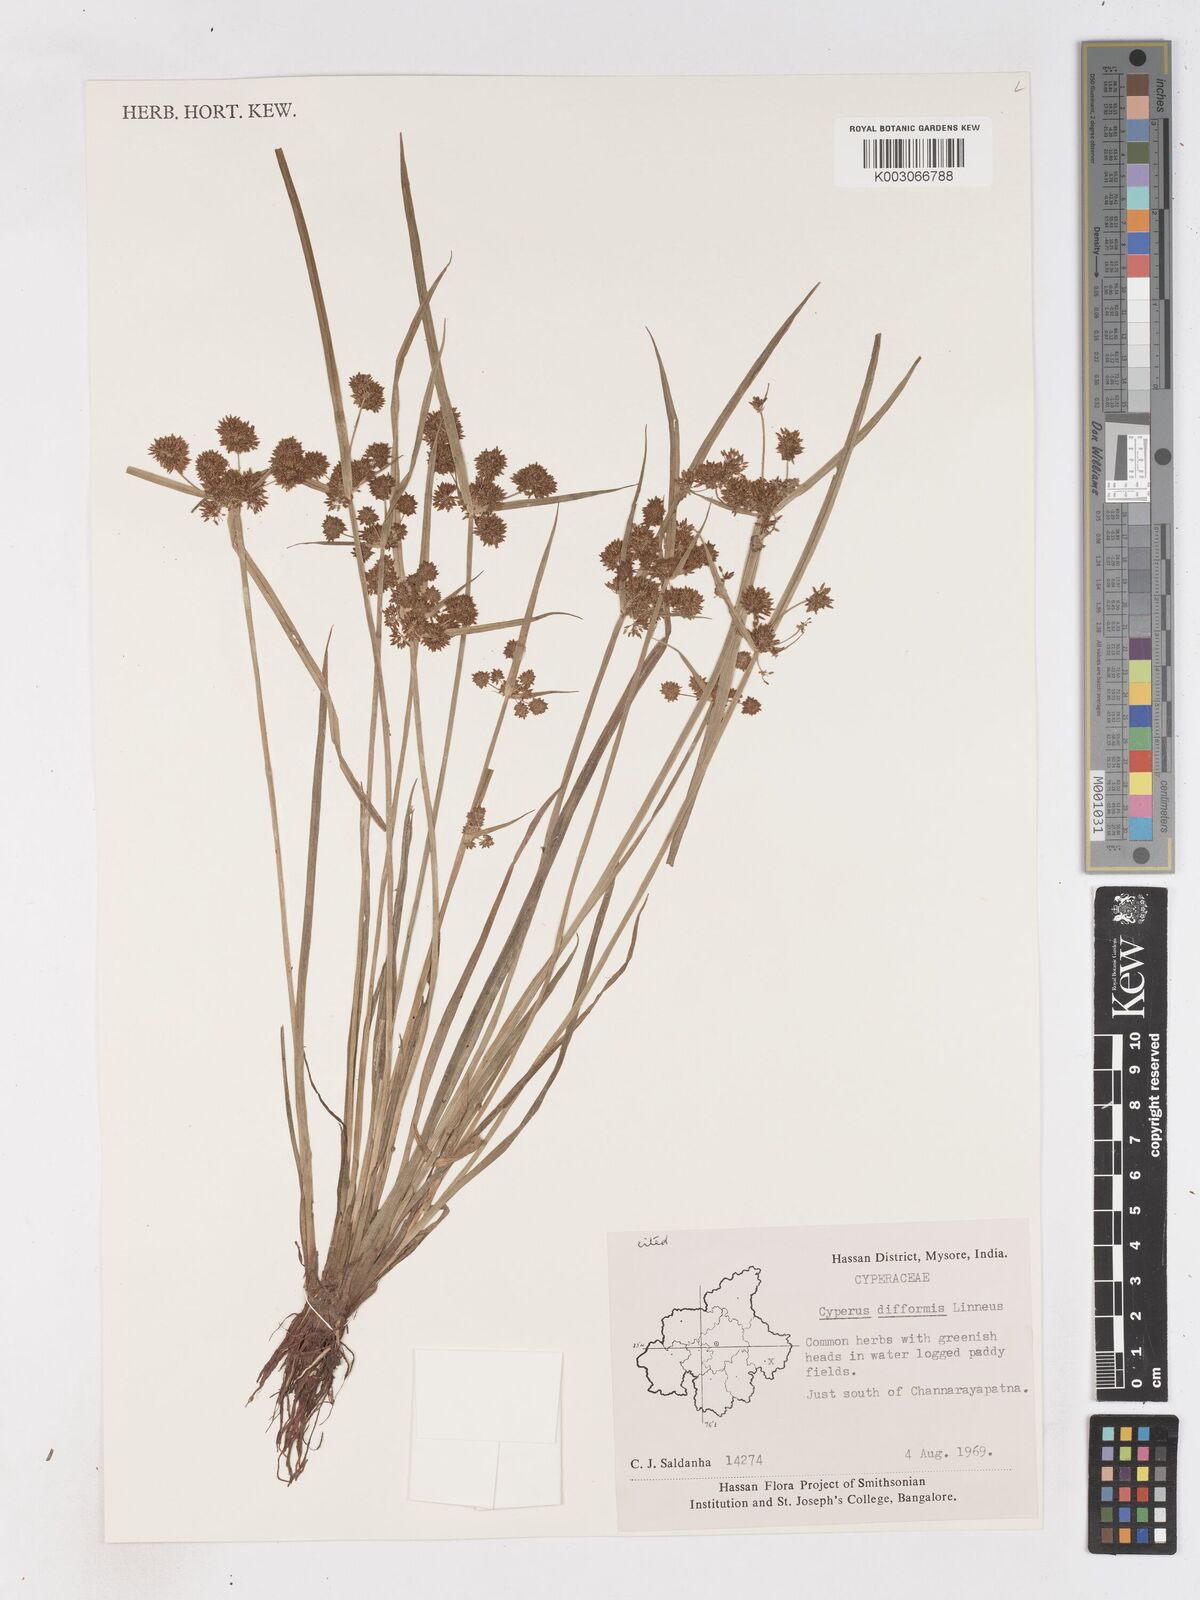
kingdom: Plantae
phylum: Tracheophyta
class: Liliopsida
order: Poales
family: Cyperaceae
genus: Cyperus
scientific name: Cyperus difformis
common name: Variable flatsedge
